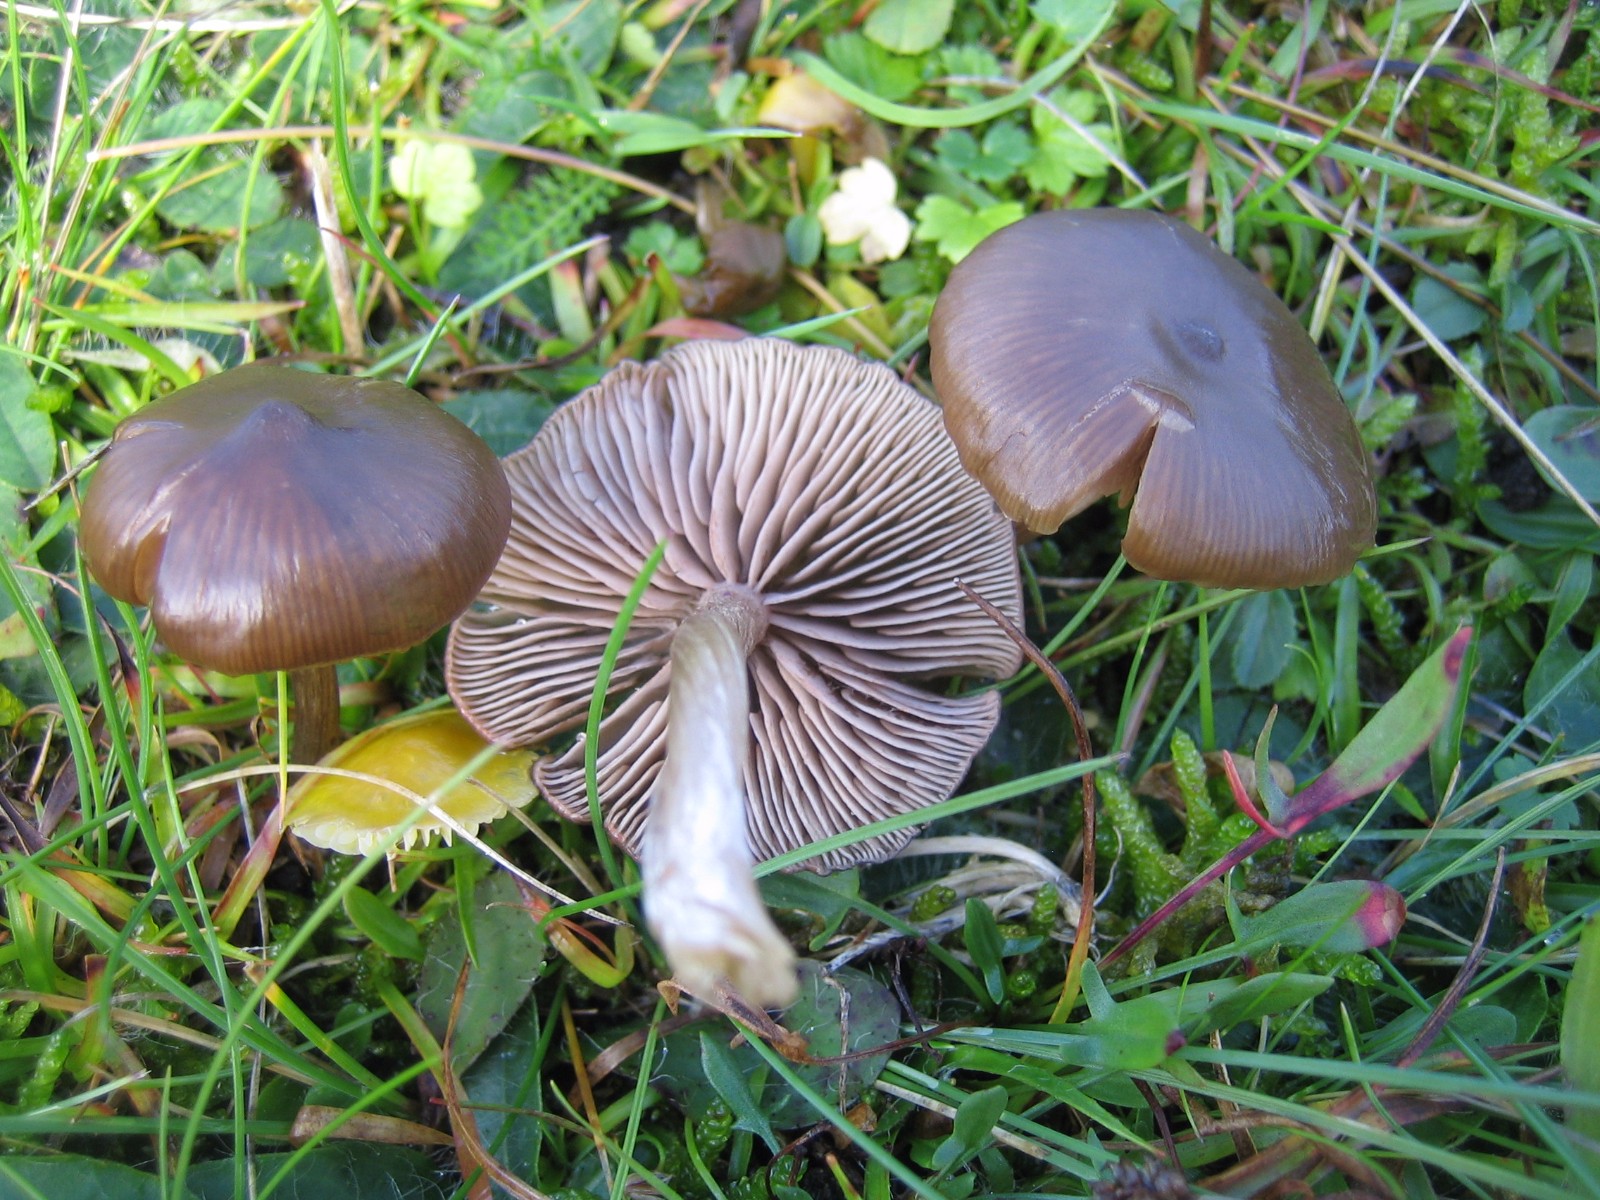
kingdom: Fungi
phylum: Basidiomycota
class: Agaricomycetes
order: Agaricales
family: Entolomataceae
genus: Entoloma
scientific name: Entoloma sericeum
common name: silkeglinsende rødblad
